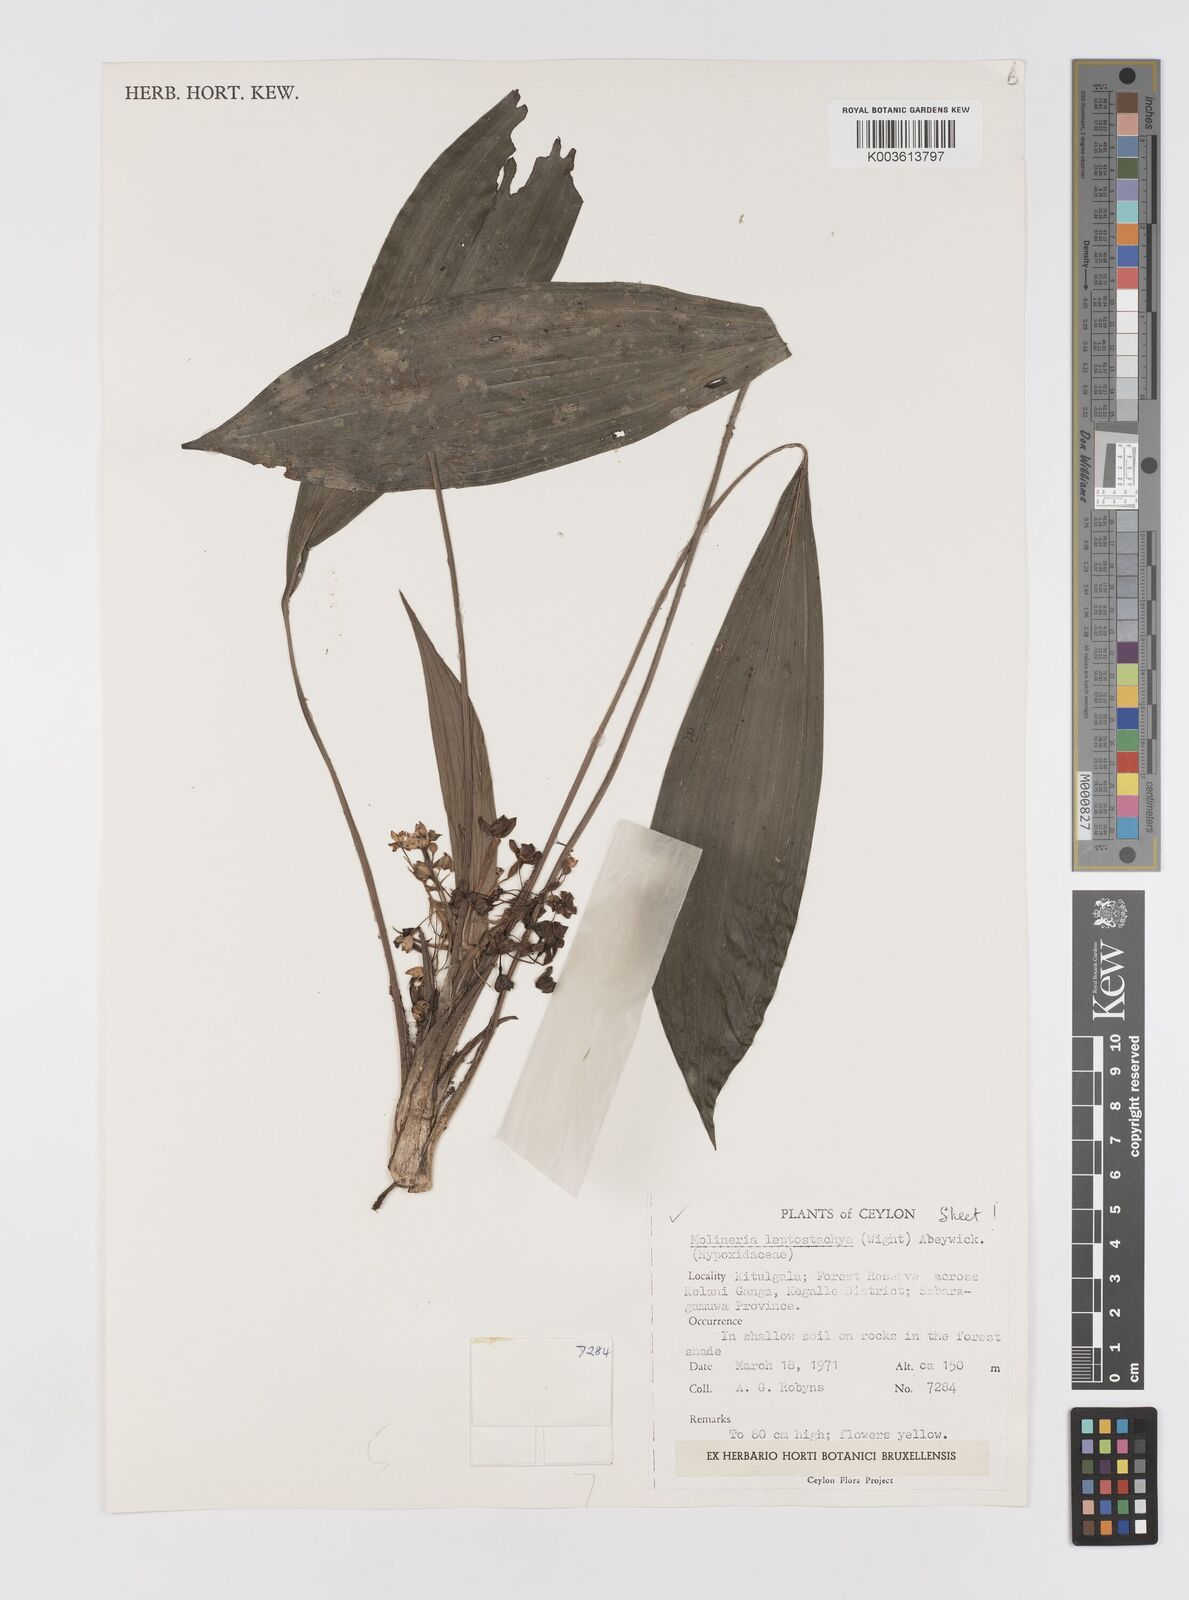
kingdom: Plantae
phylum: Tracheophyta
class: Liliopsida
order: Asparagales
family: Hypoxidaceae
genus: Curculigo
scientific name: Curculigo trichocarpa
